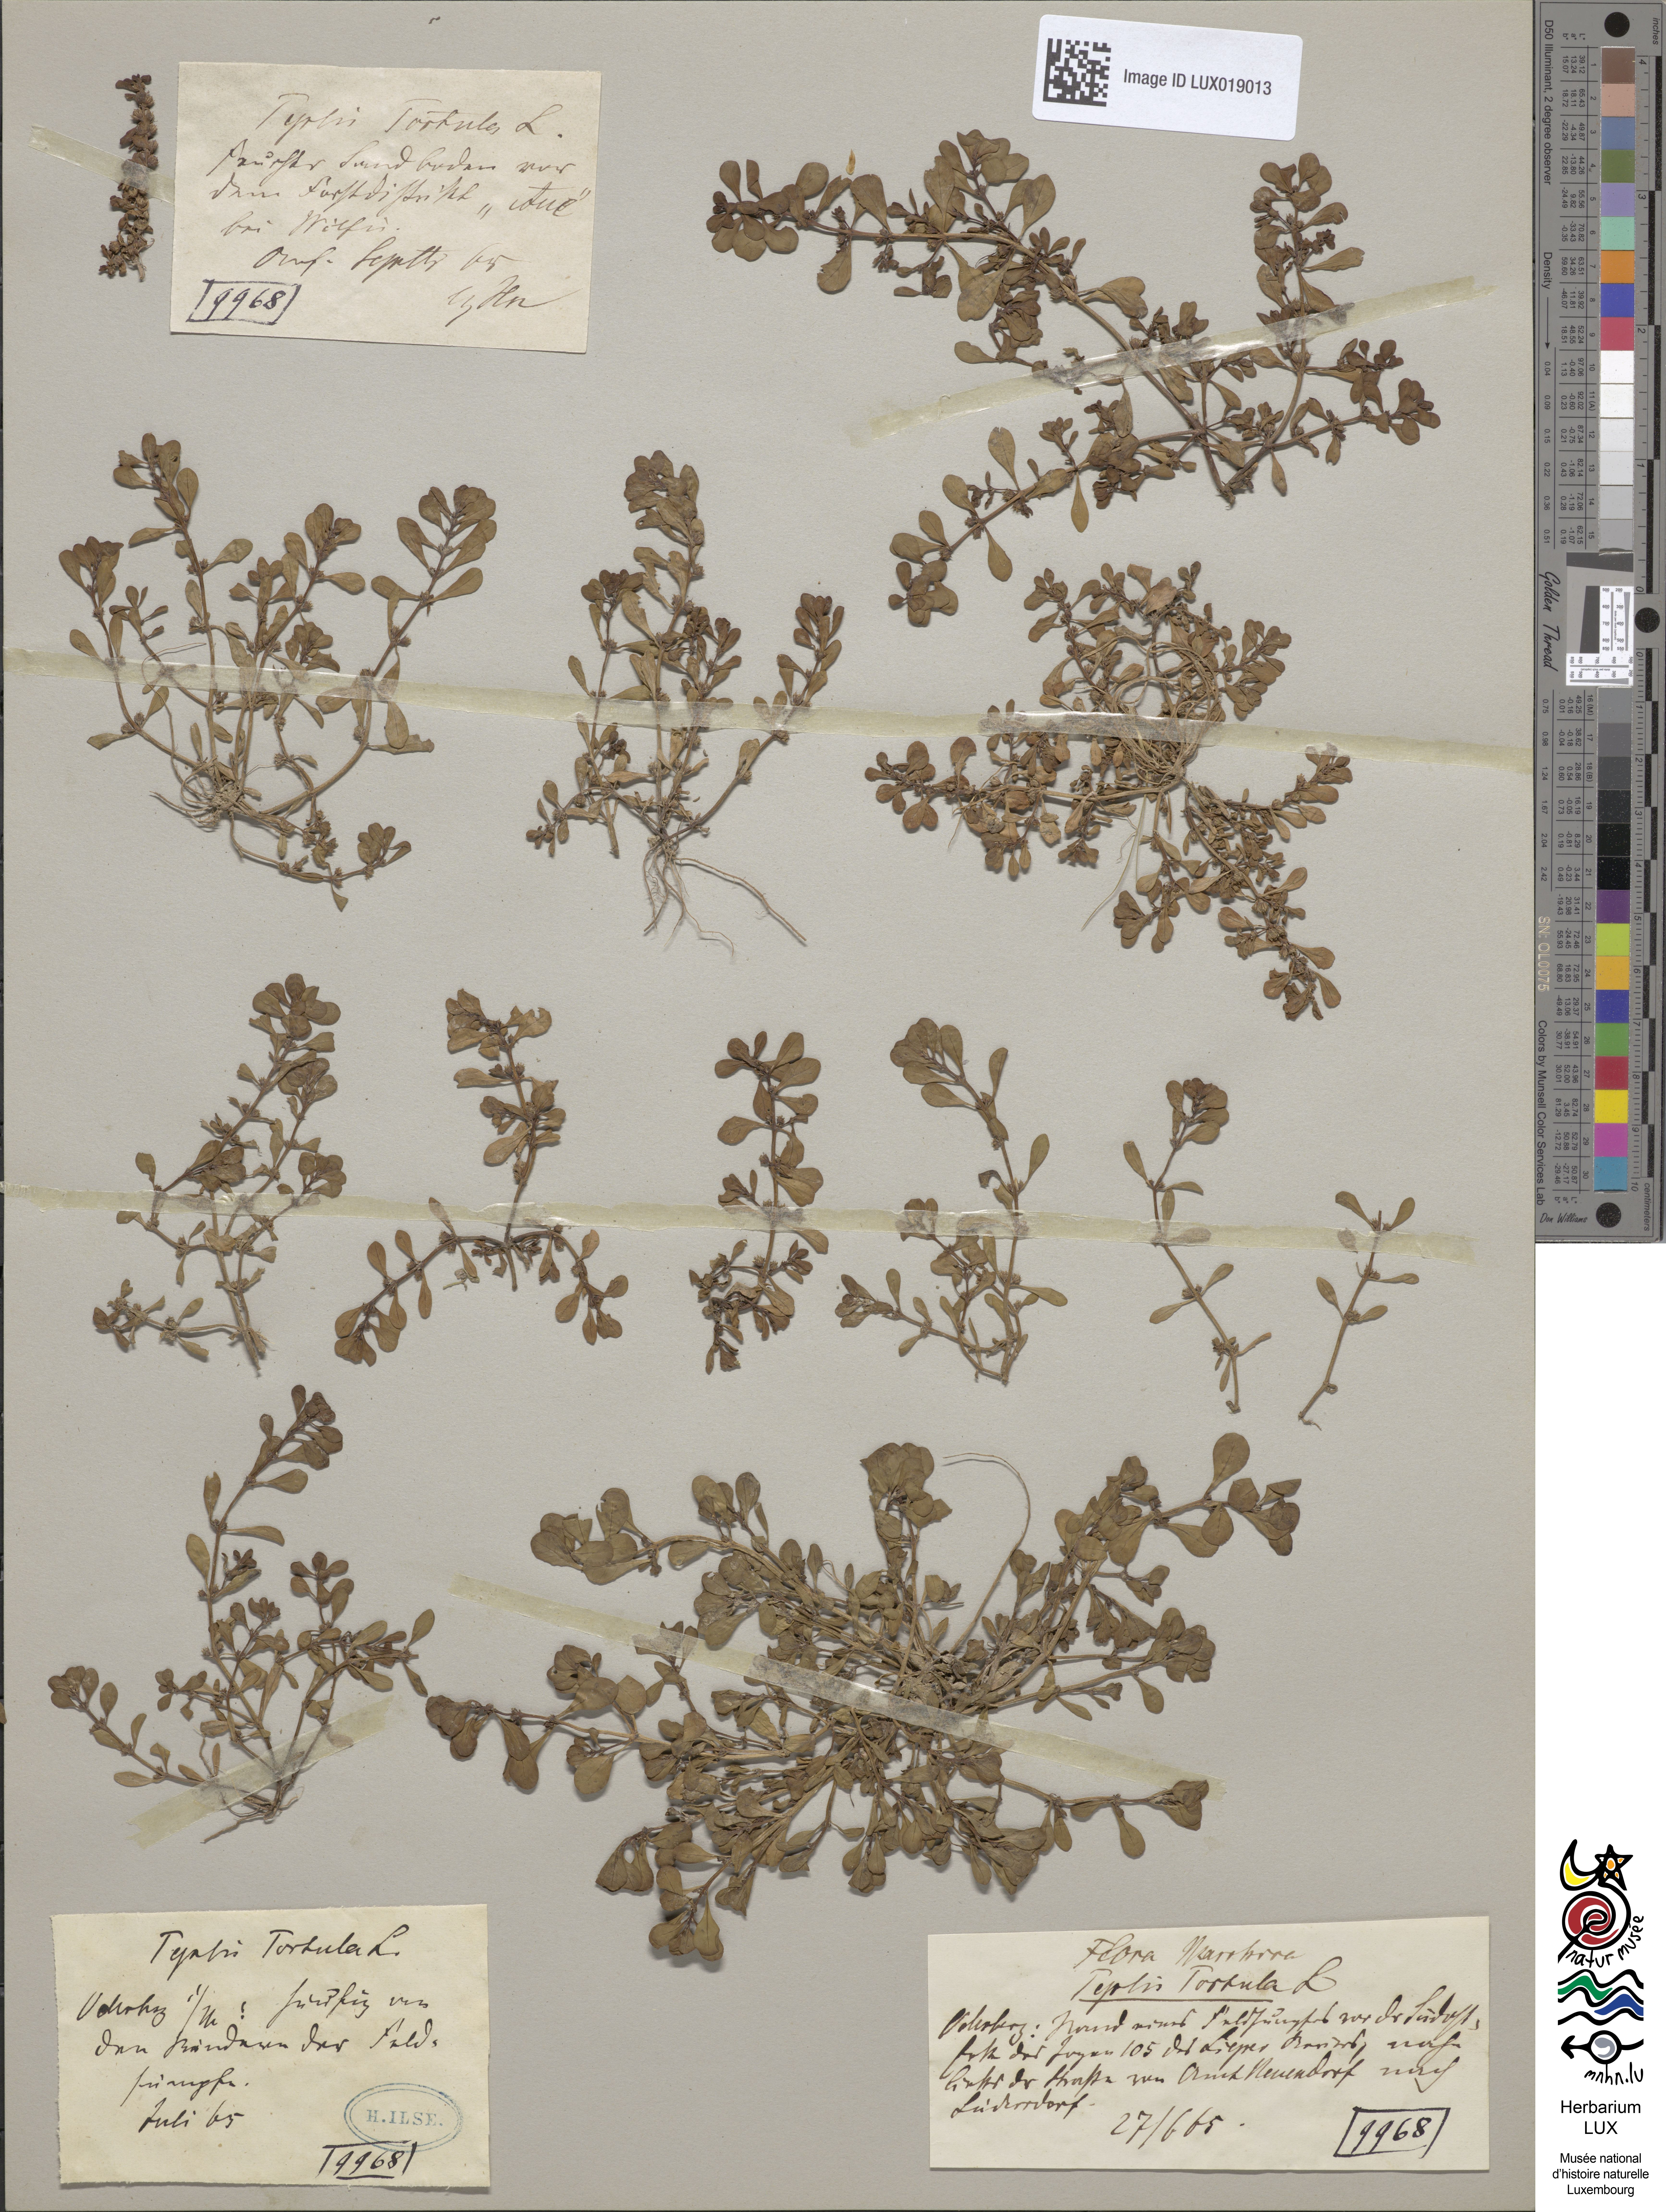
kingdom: Plantae
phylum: Tracheophyta
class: Magnoliopsida
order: Myrtales
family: Lythraceae
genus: Lythrum
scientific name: Lythrum portula
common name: Water purslane
